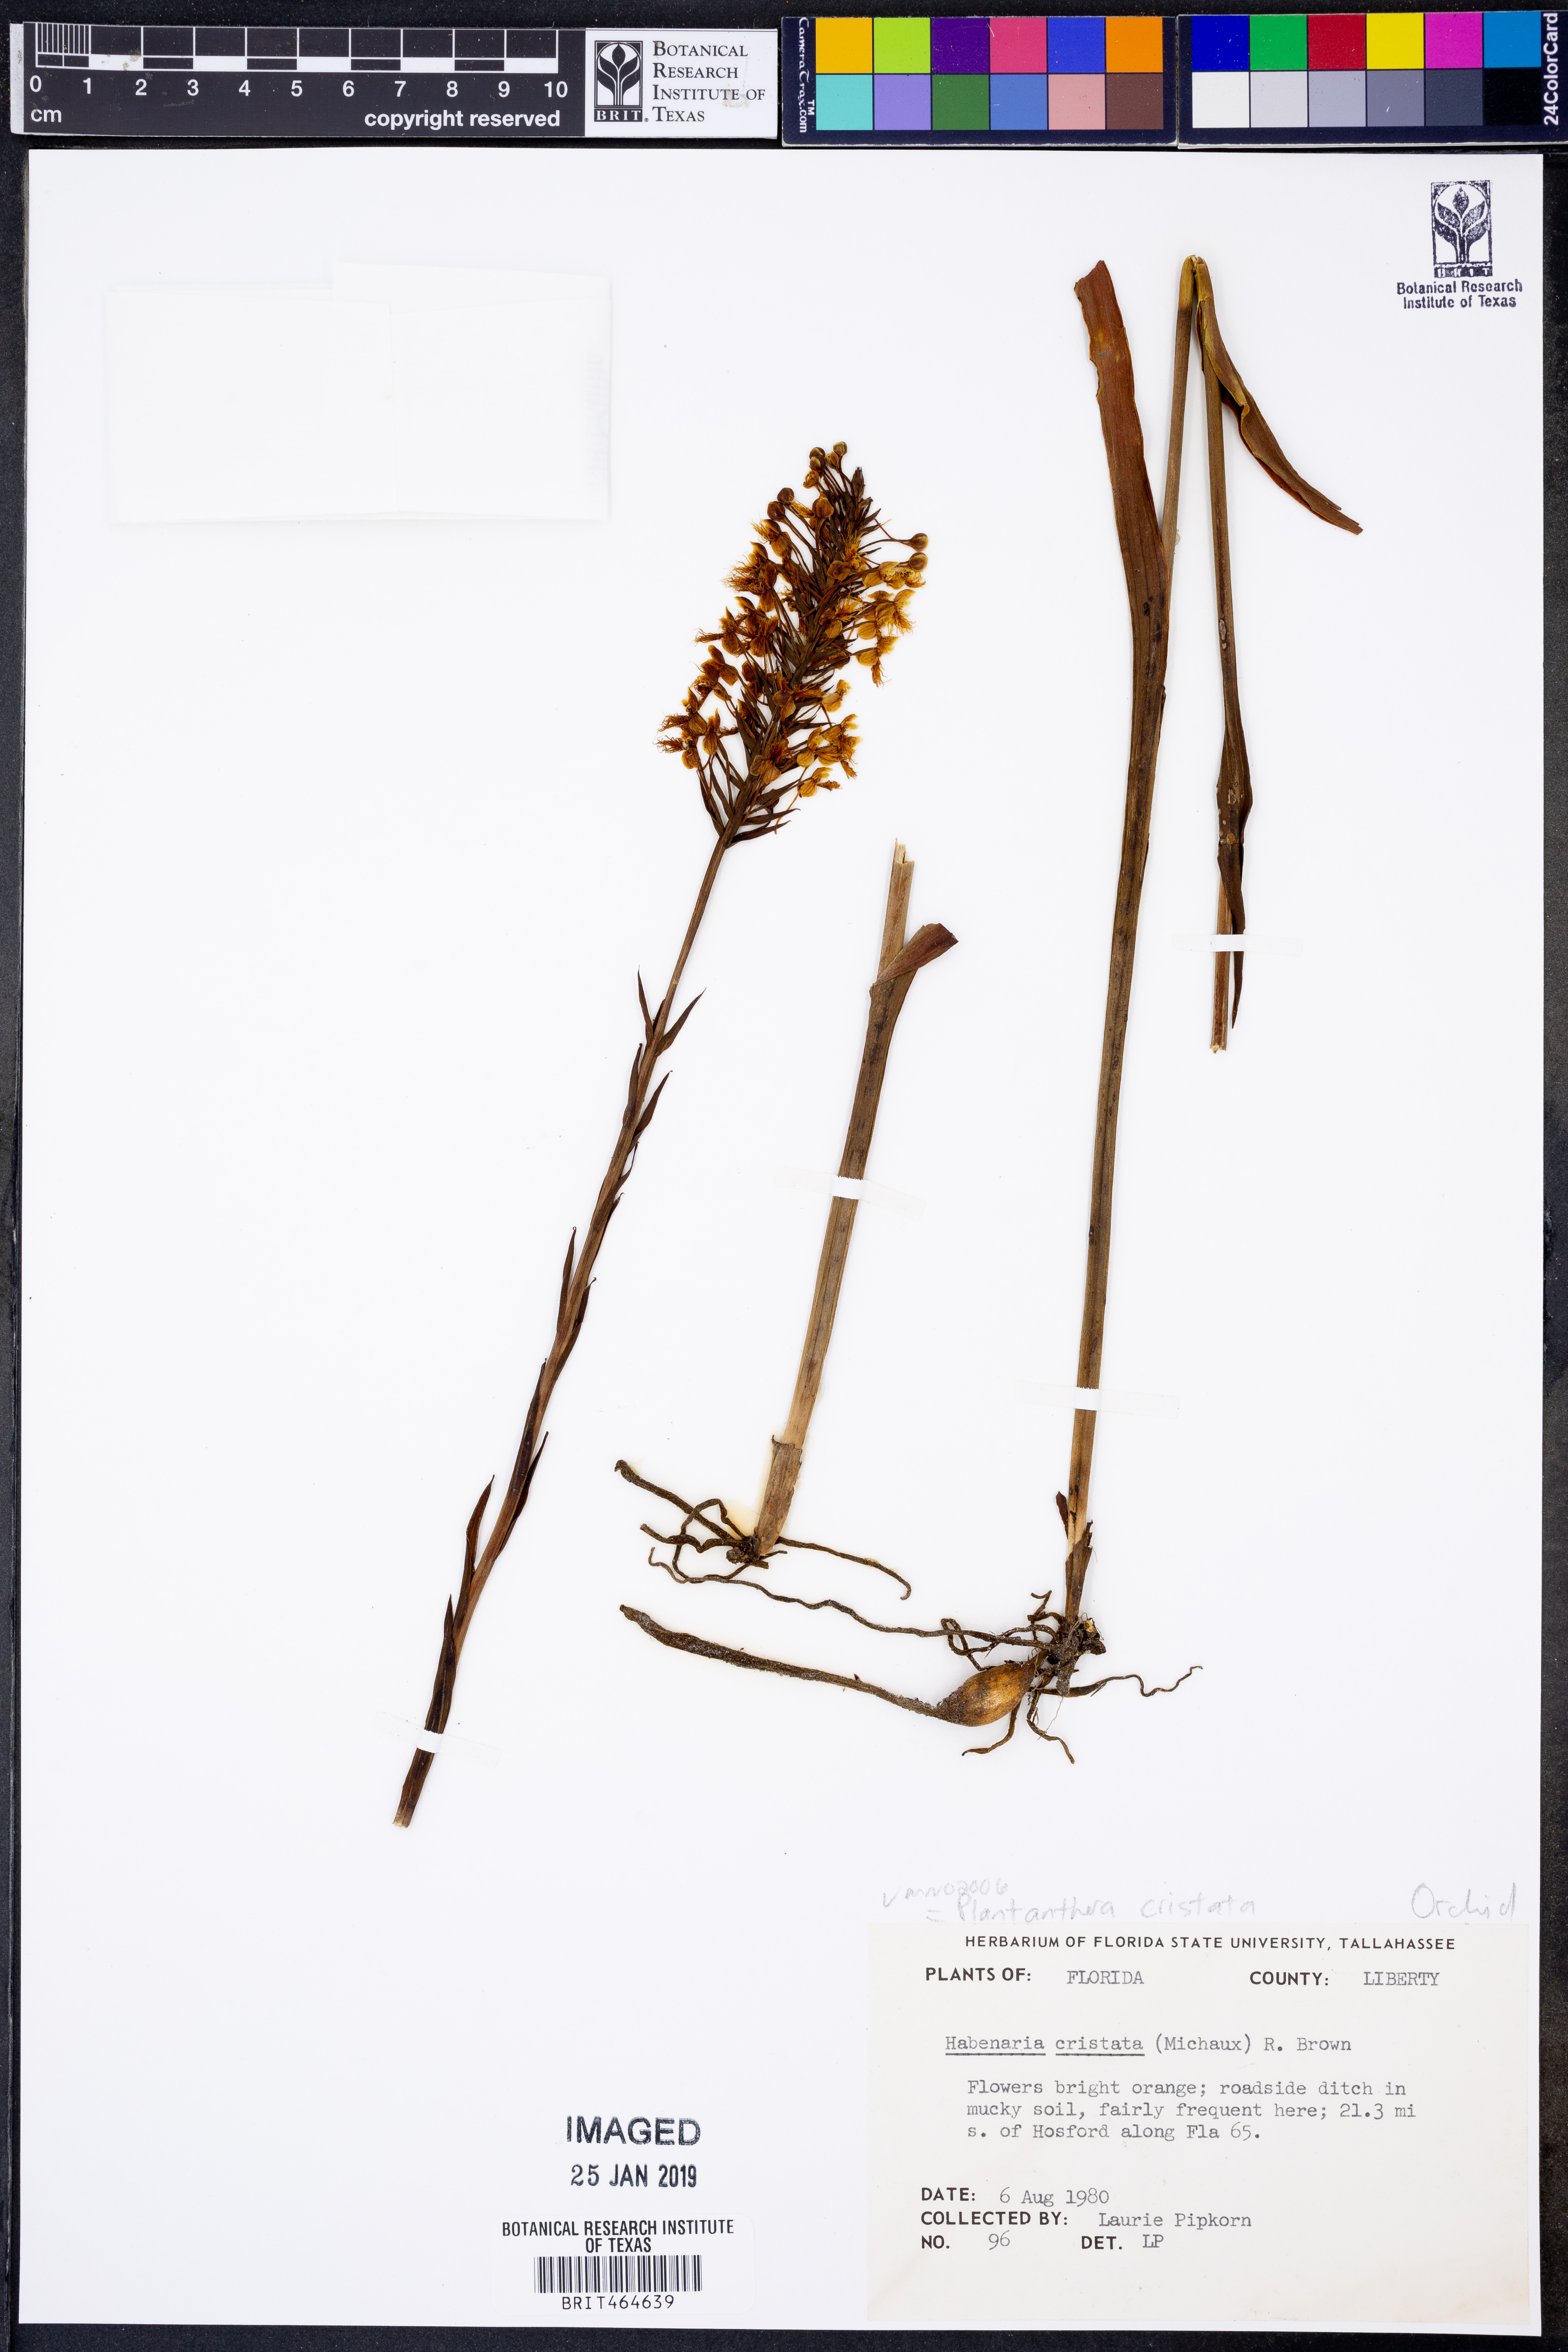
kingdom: Plantae
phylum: Tracheophyta
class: Liliopsida
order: Asparagales
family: Orchidaceae
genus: Platanthera
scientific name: Platanthera cristata
